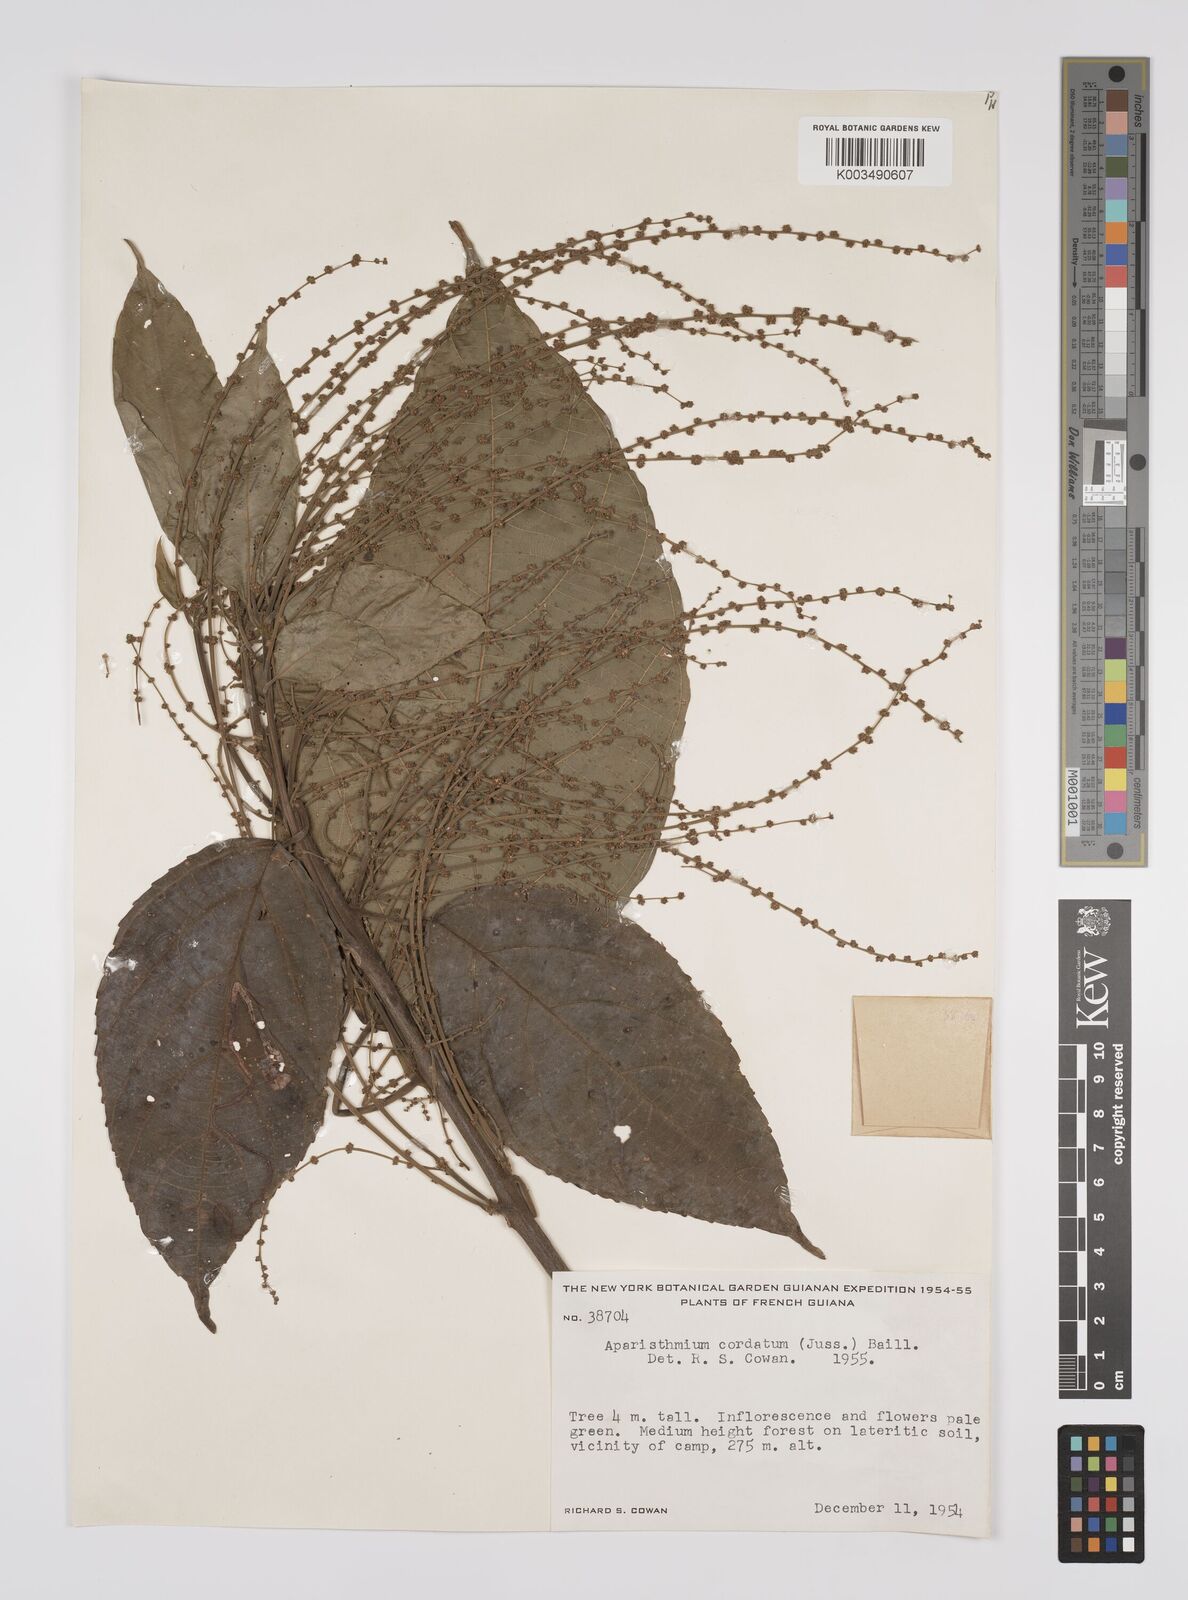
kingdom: Plantae
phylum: Tracheophyta
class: Magnoliopsida
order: Malpighiales
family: Euphorbiaceae
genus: Aparisthmium
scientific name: Aparisthmium cordatum
